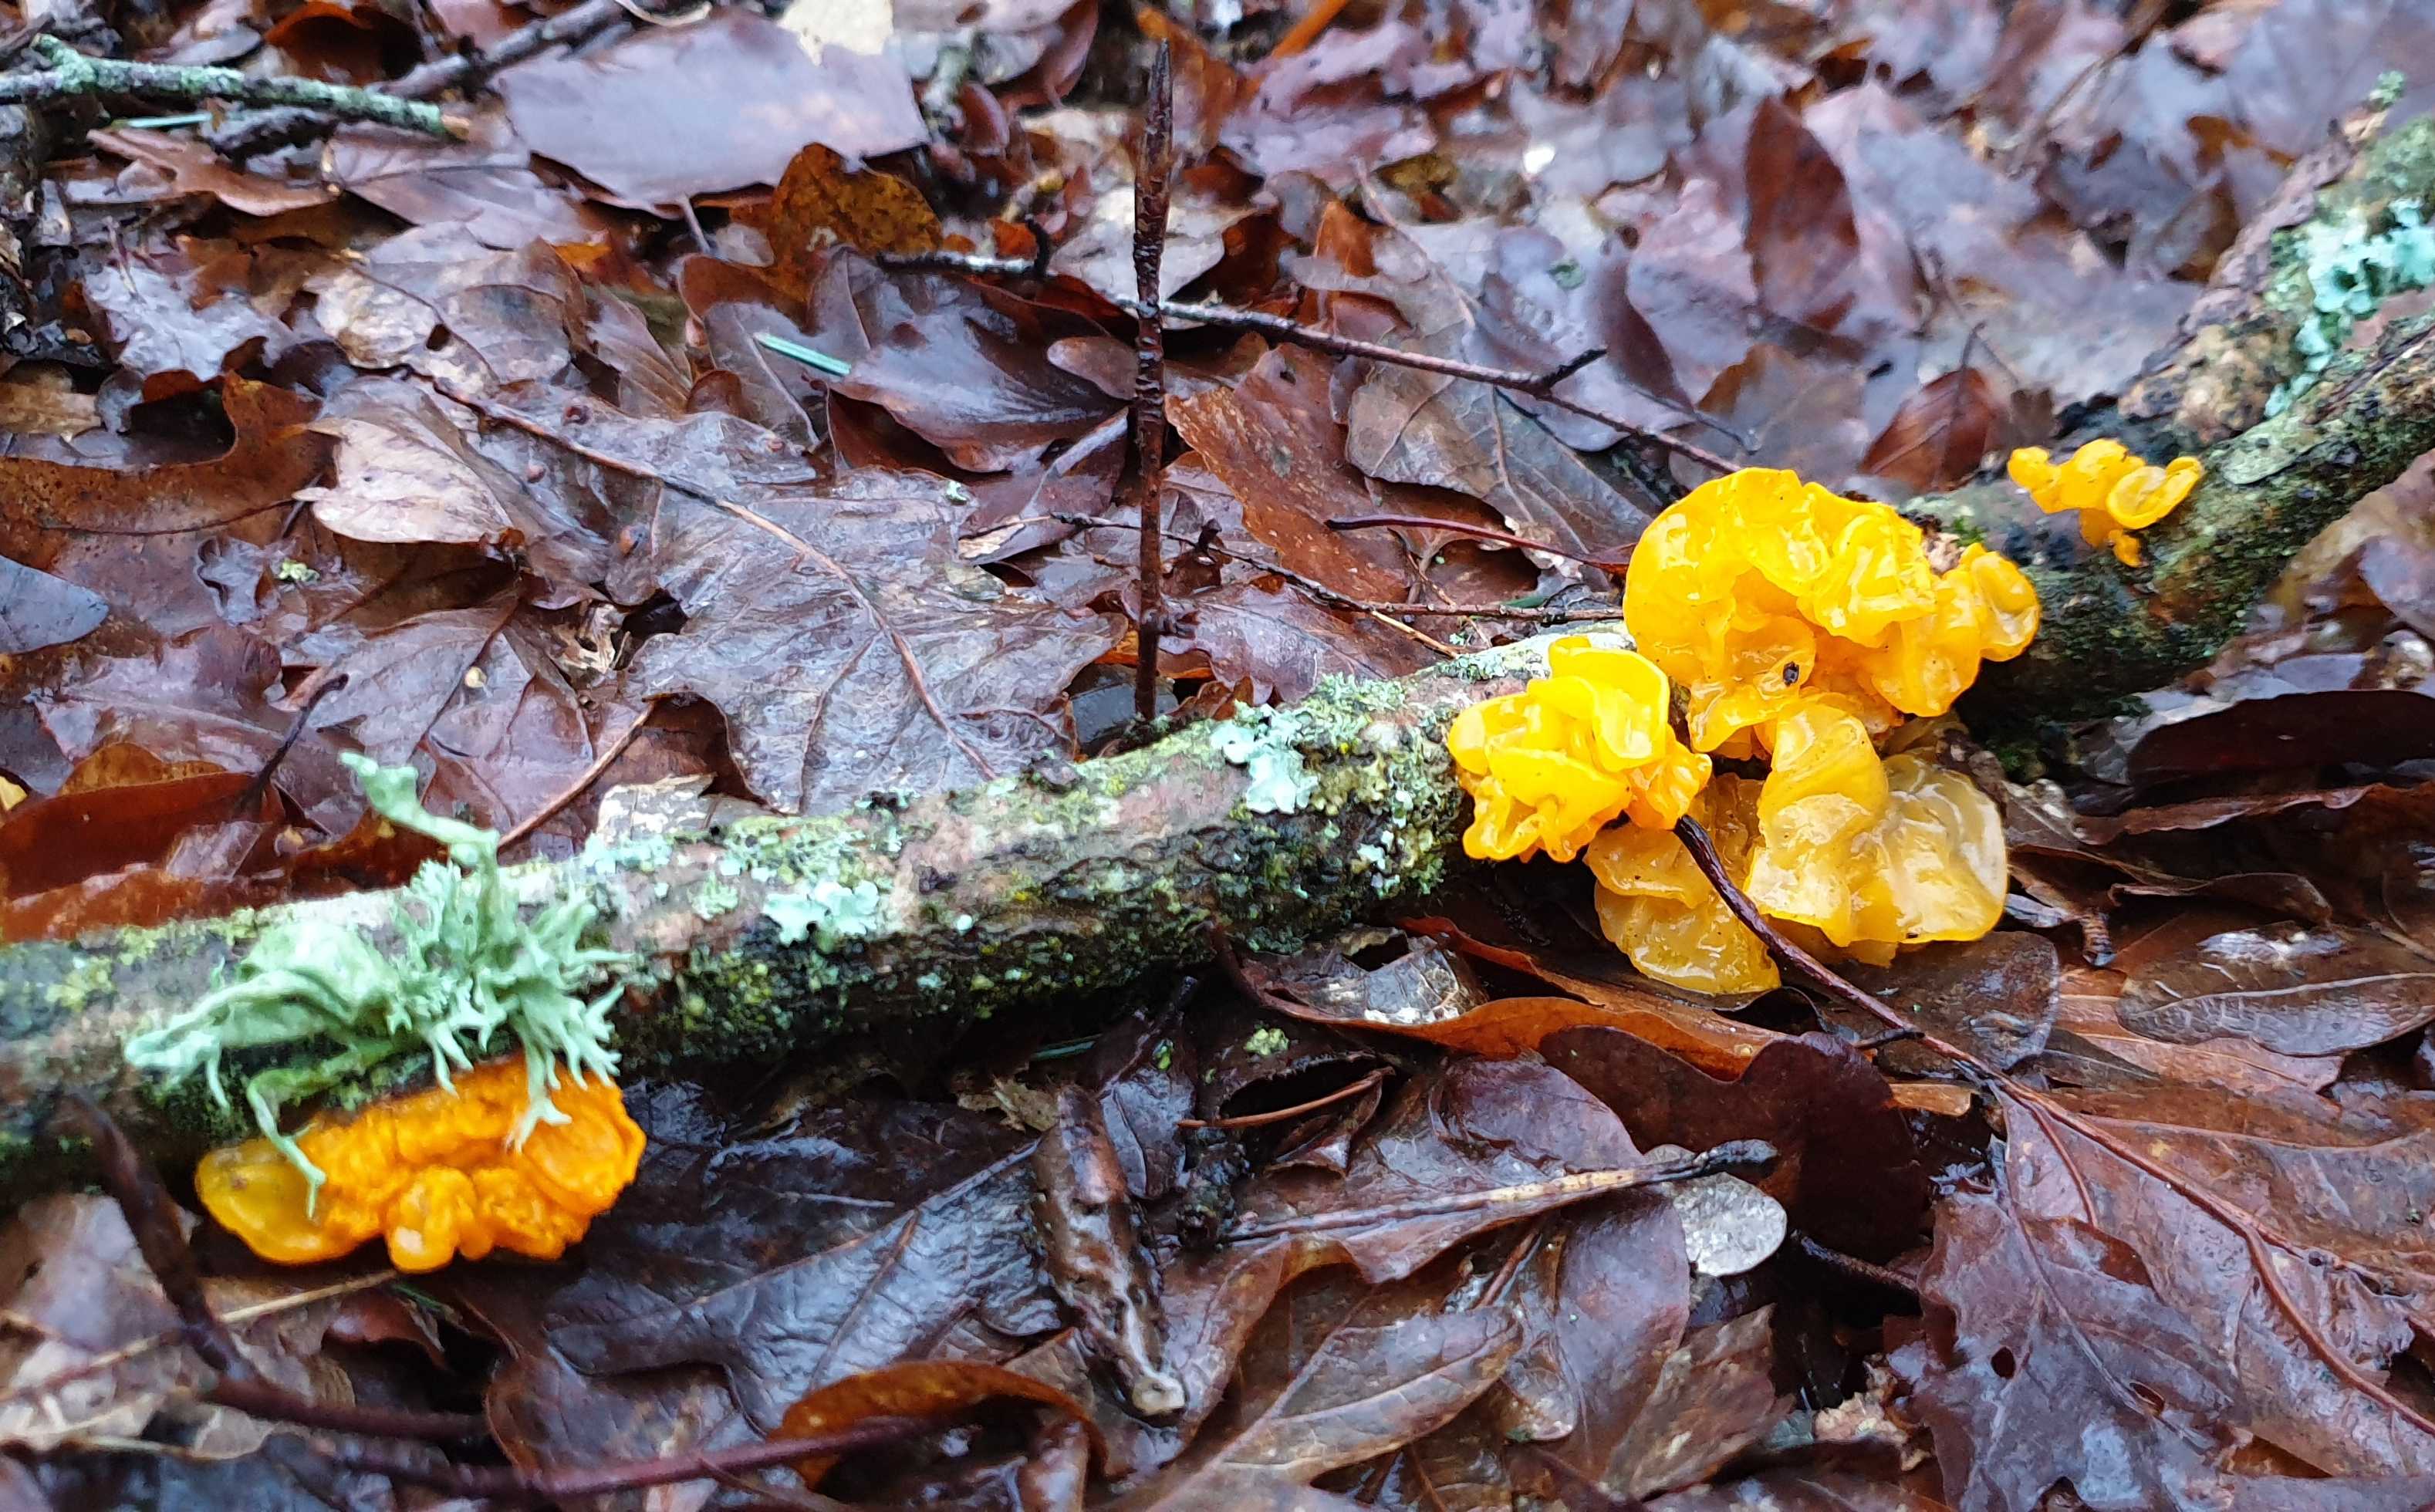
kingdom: Fungi
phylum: Basidiomycota
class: Tremellomycetes
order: Tremellales
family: Tremellaceae
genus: Tremella
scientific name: Tremella mesenterica
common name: gul bævresvamp
